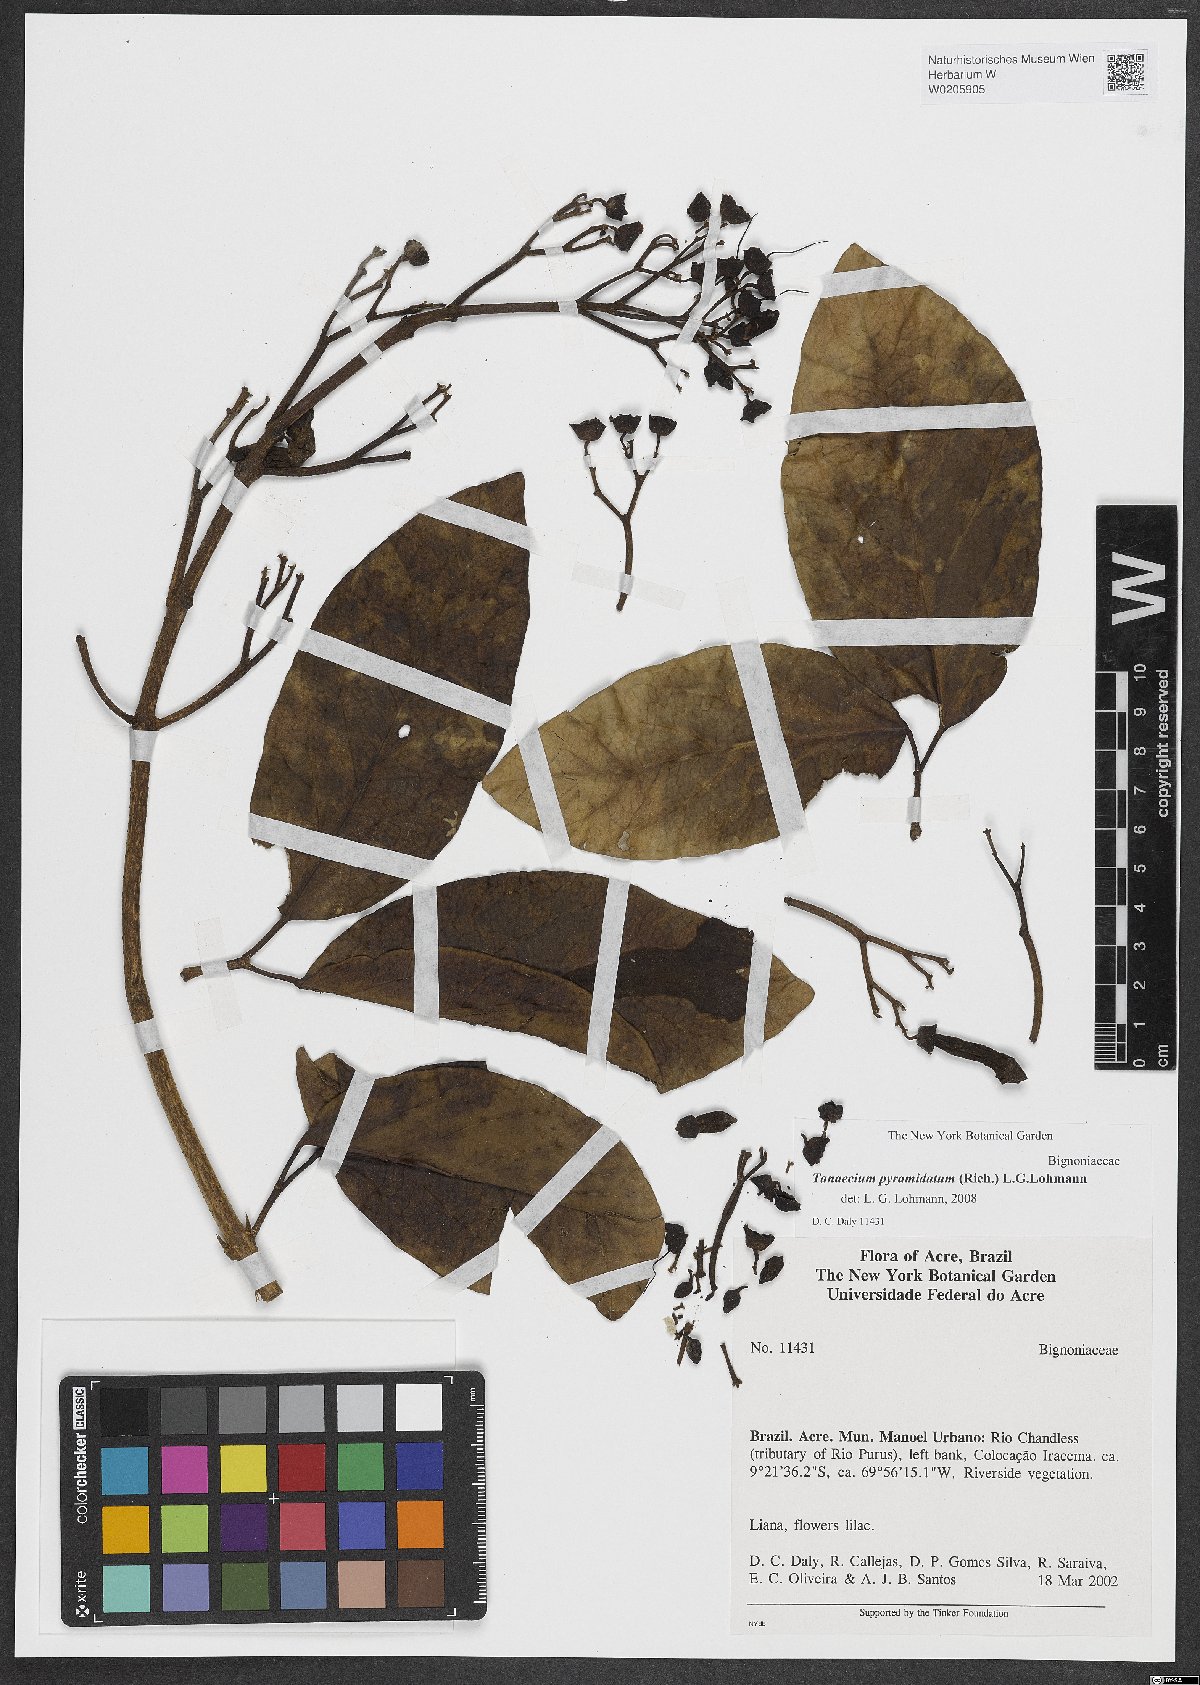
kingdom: Plantae
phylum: Tracheophyta
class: Magnoliopsida
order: Lamiales
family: Bignoniaceae
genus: Tanaecium
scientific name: Tanaecium pyramidatum
